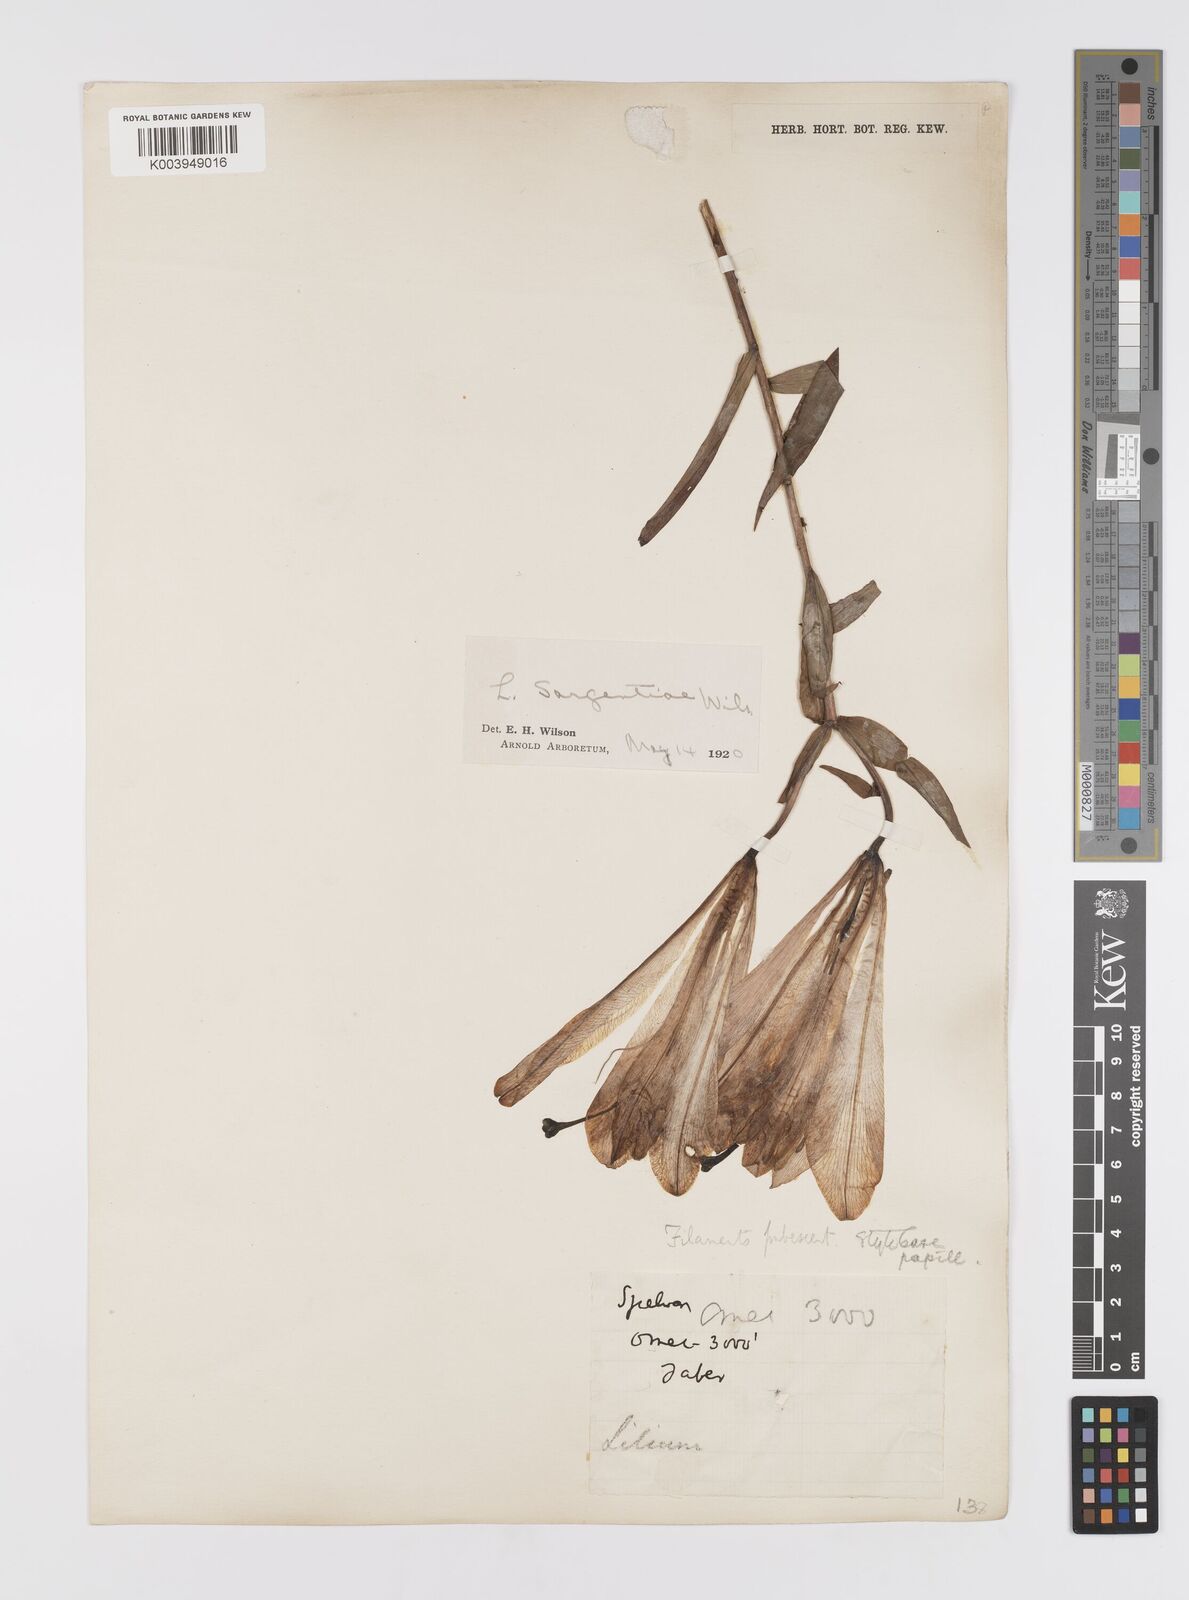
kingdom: Plantae
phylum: Tracheophyta
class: Liliopsida
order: Liliales
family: Liliaceae
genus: Lilium
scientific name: Lilium sargentiae
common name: Sargent lily
